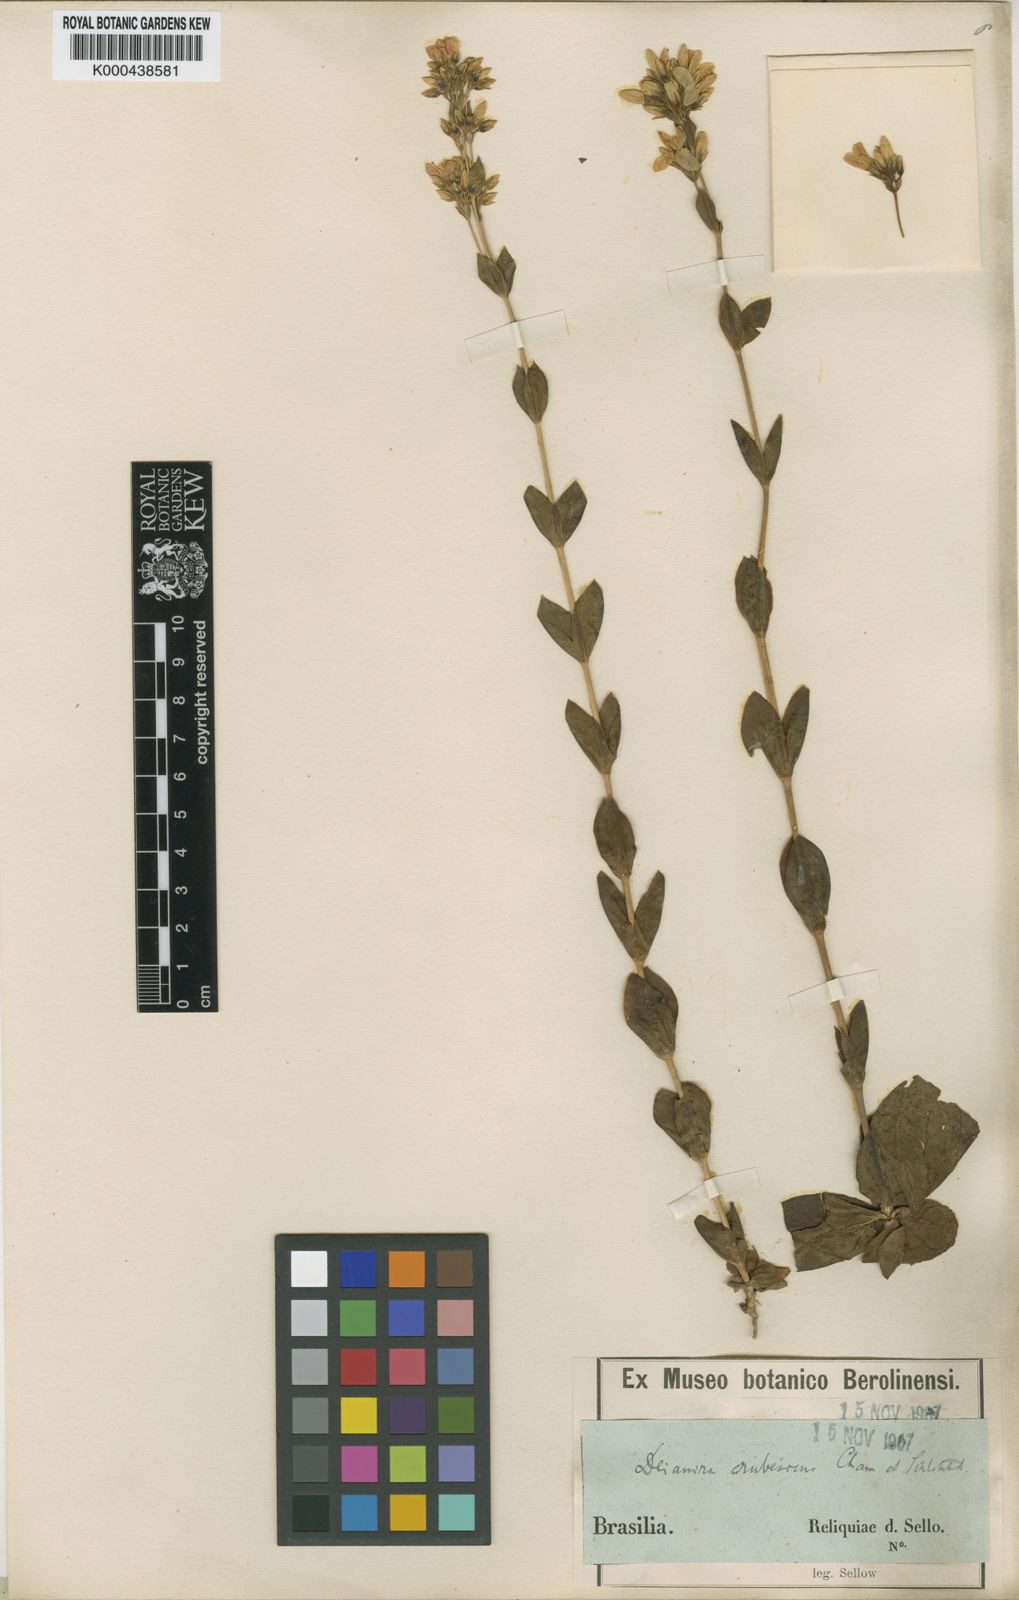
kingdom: Plantae
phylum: Tracheophyta
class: Magnoliopsida
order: Gentianales
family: Gentianaceae
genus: Deianira
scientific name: Deianira erubescens
